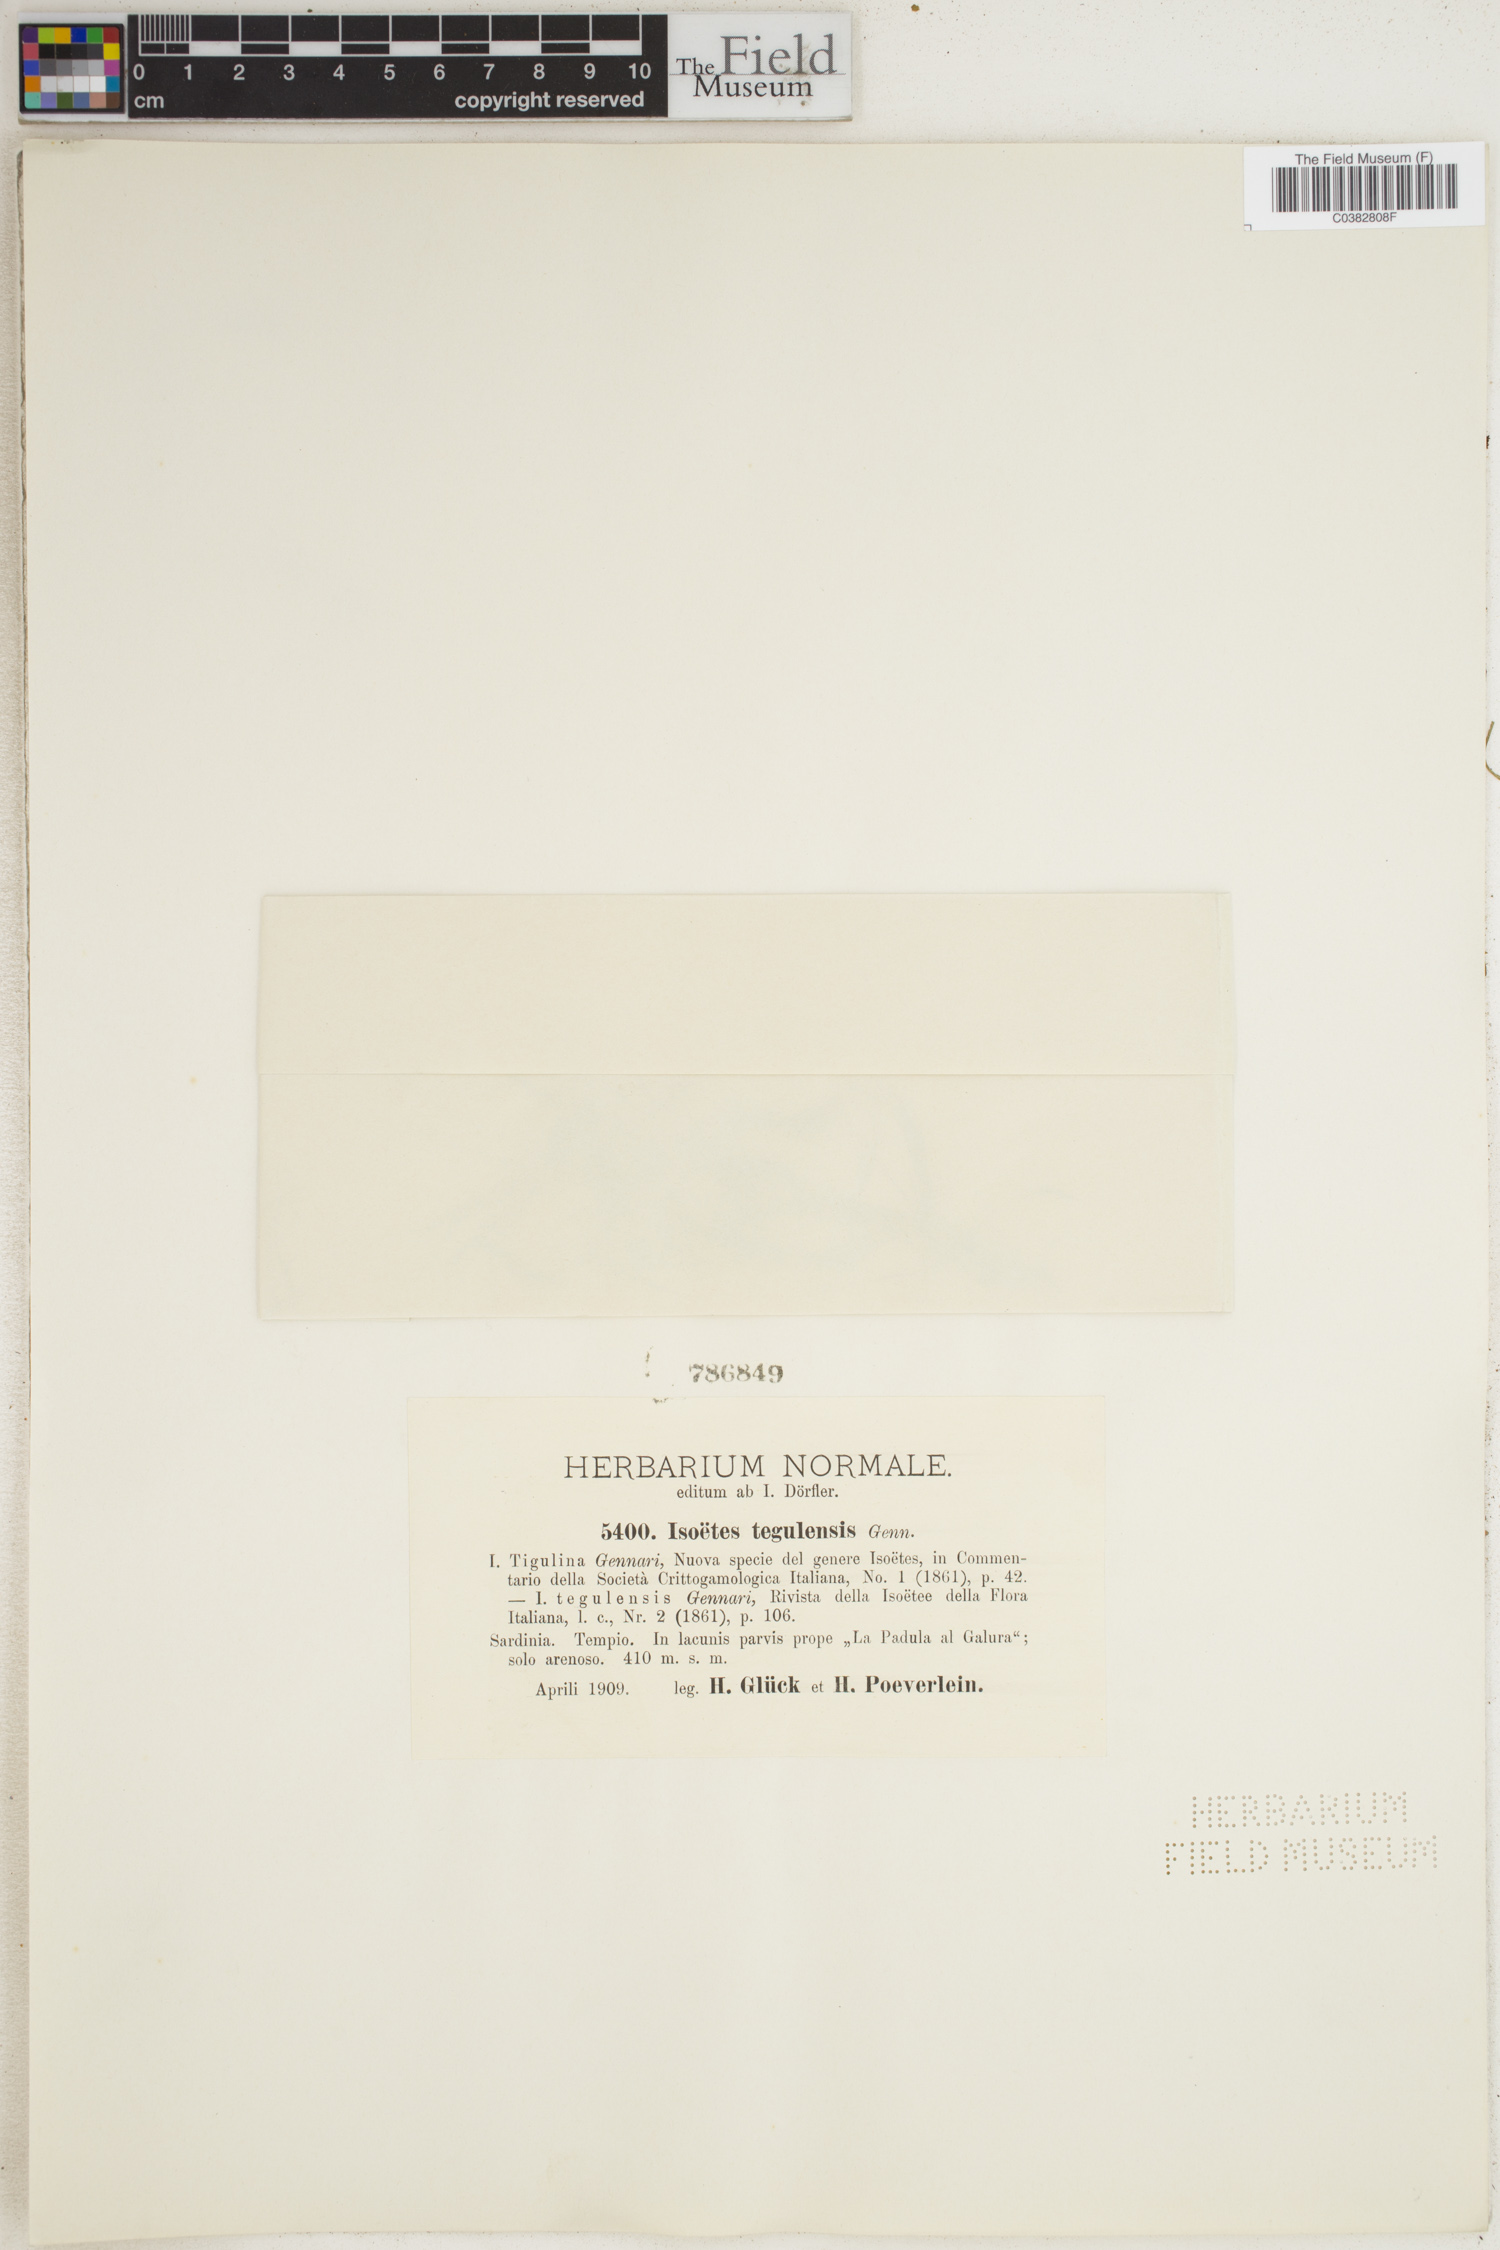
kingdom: Plantae
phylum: Tracheophyta
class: Lycopodiopsida
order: Isoetales
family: Isoetaceae
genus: Isoetes
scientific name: Isoetes tiguliana
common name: Sardinian quillwort
